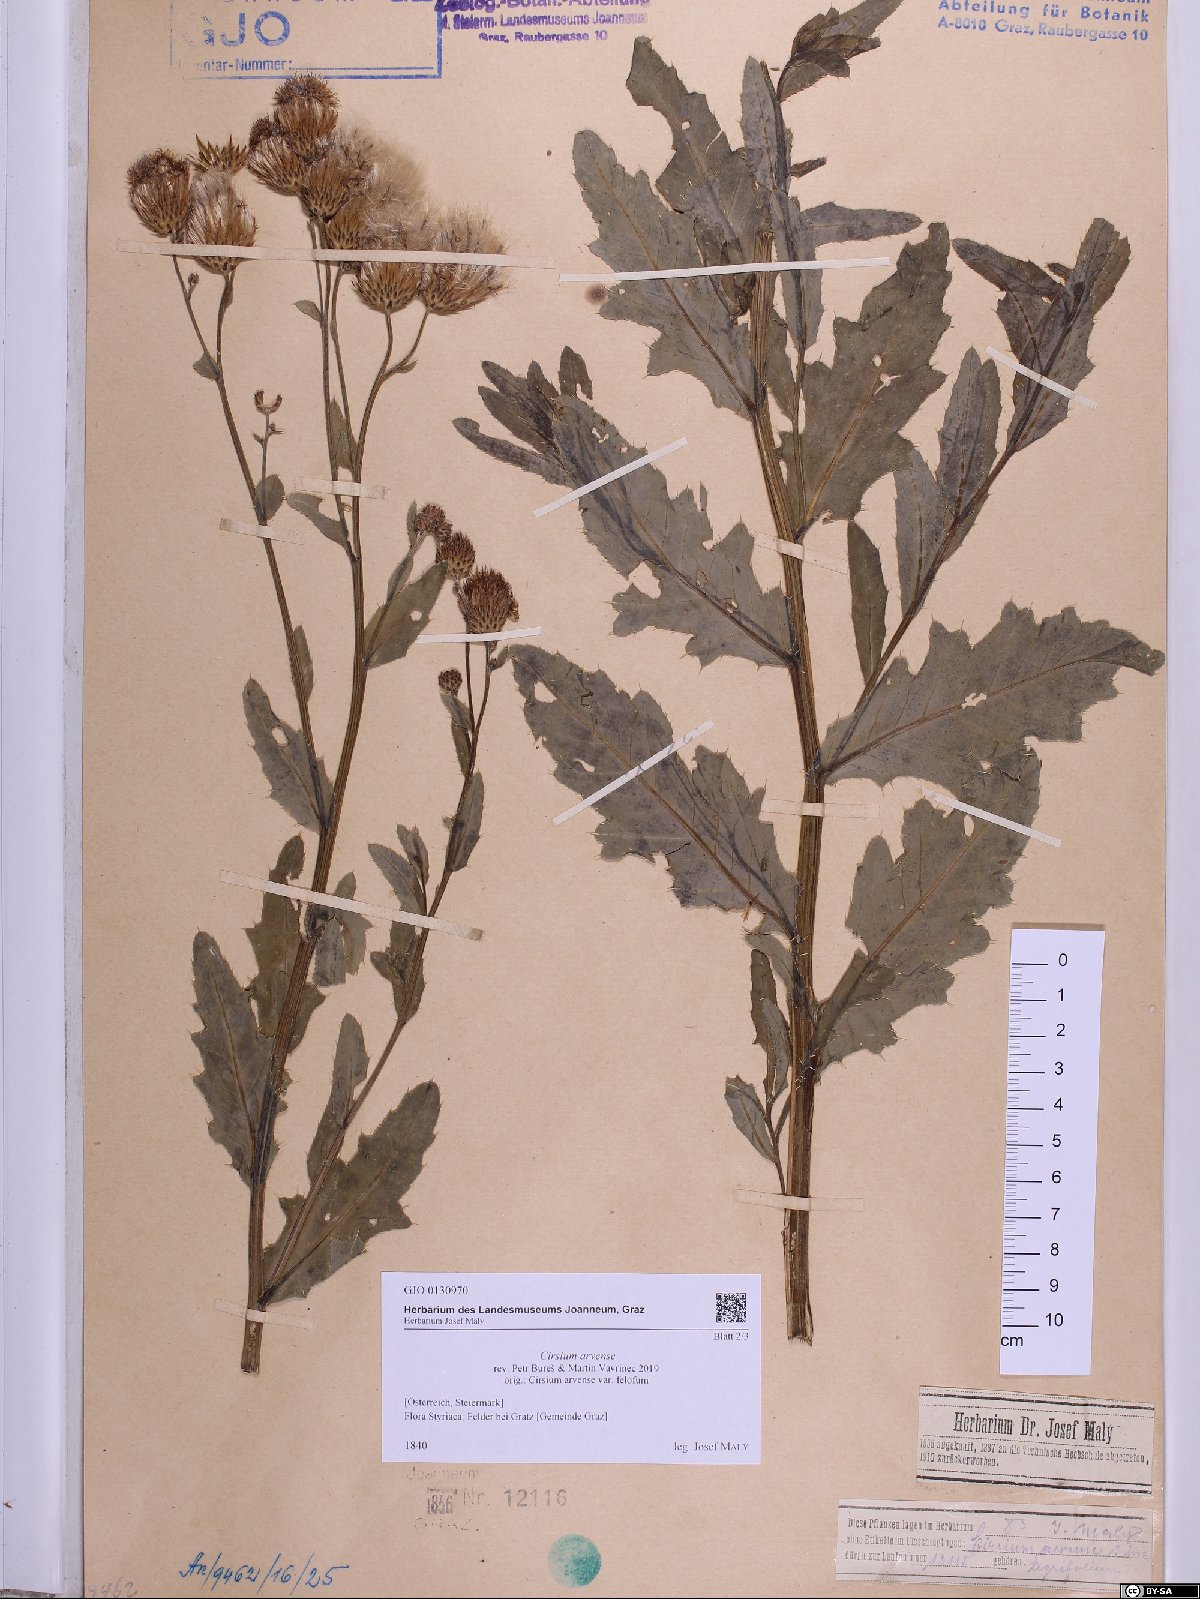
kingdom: Plantae
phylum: Tracheophyta
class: Magnoliopsida
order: Asterales
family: Asteraceae
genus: Cirsium
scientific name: Cirsium arvense
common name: Creeping thistle
